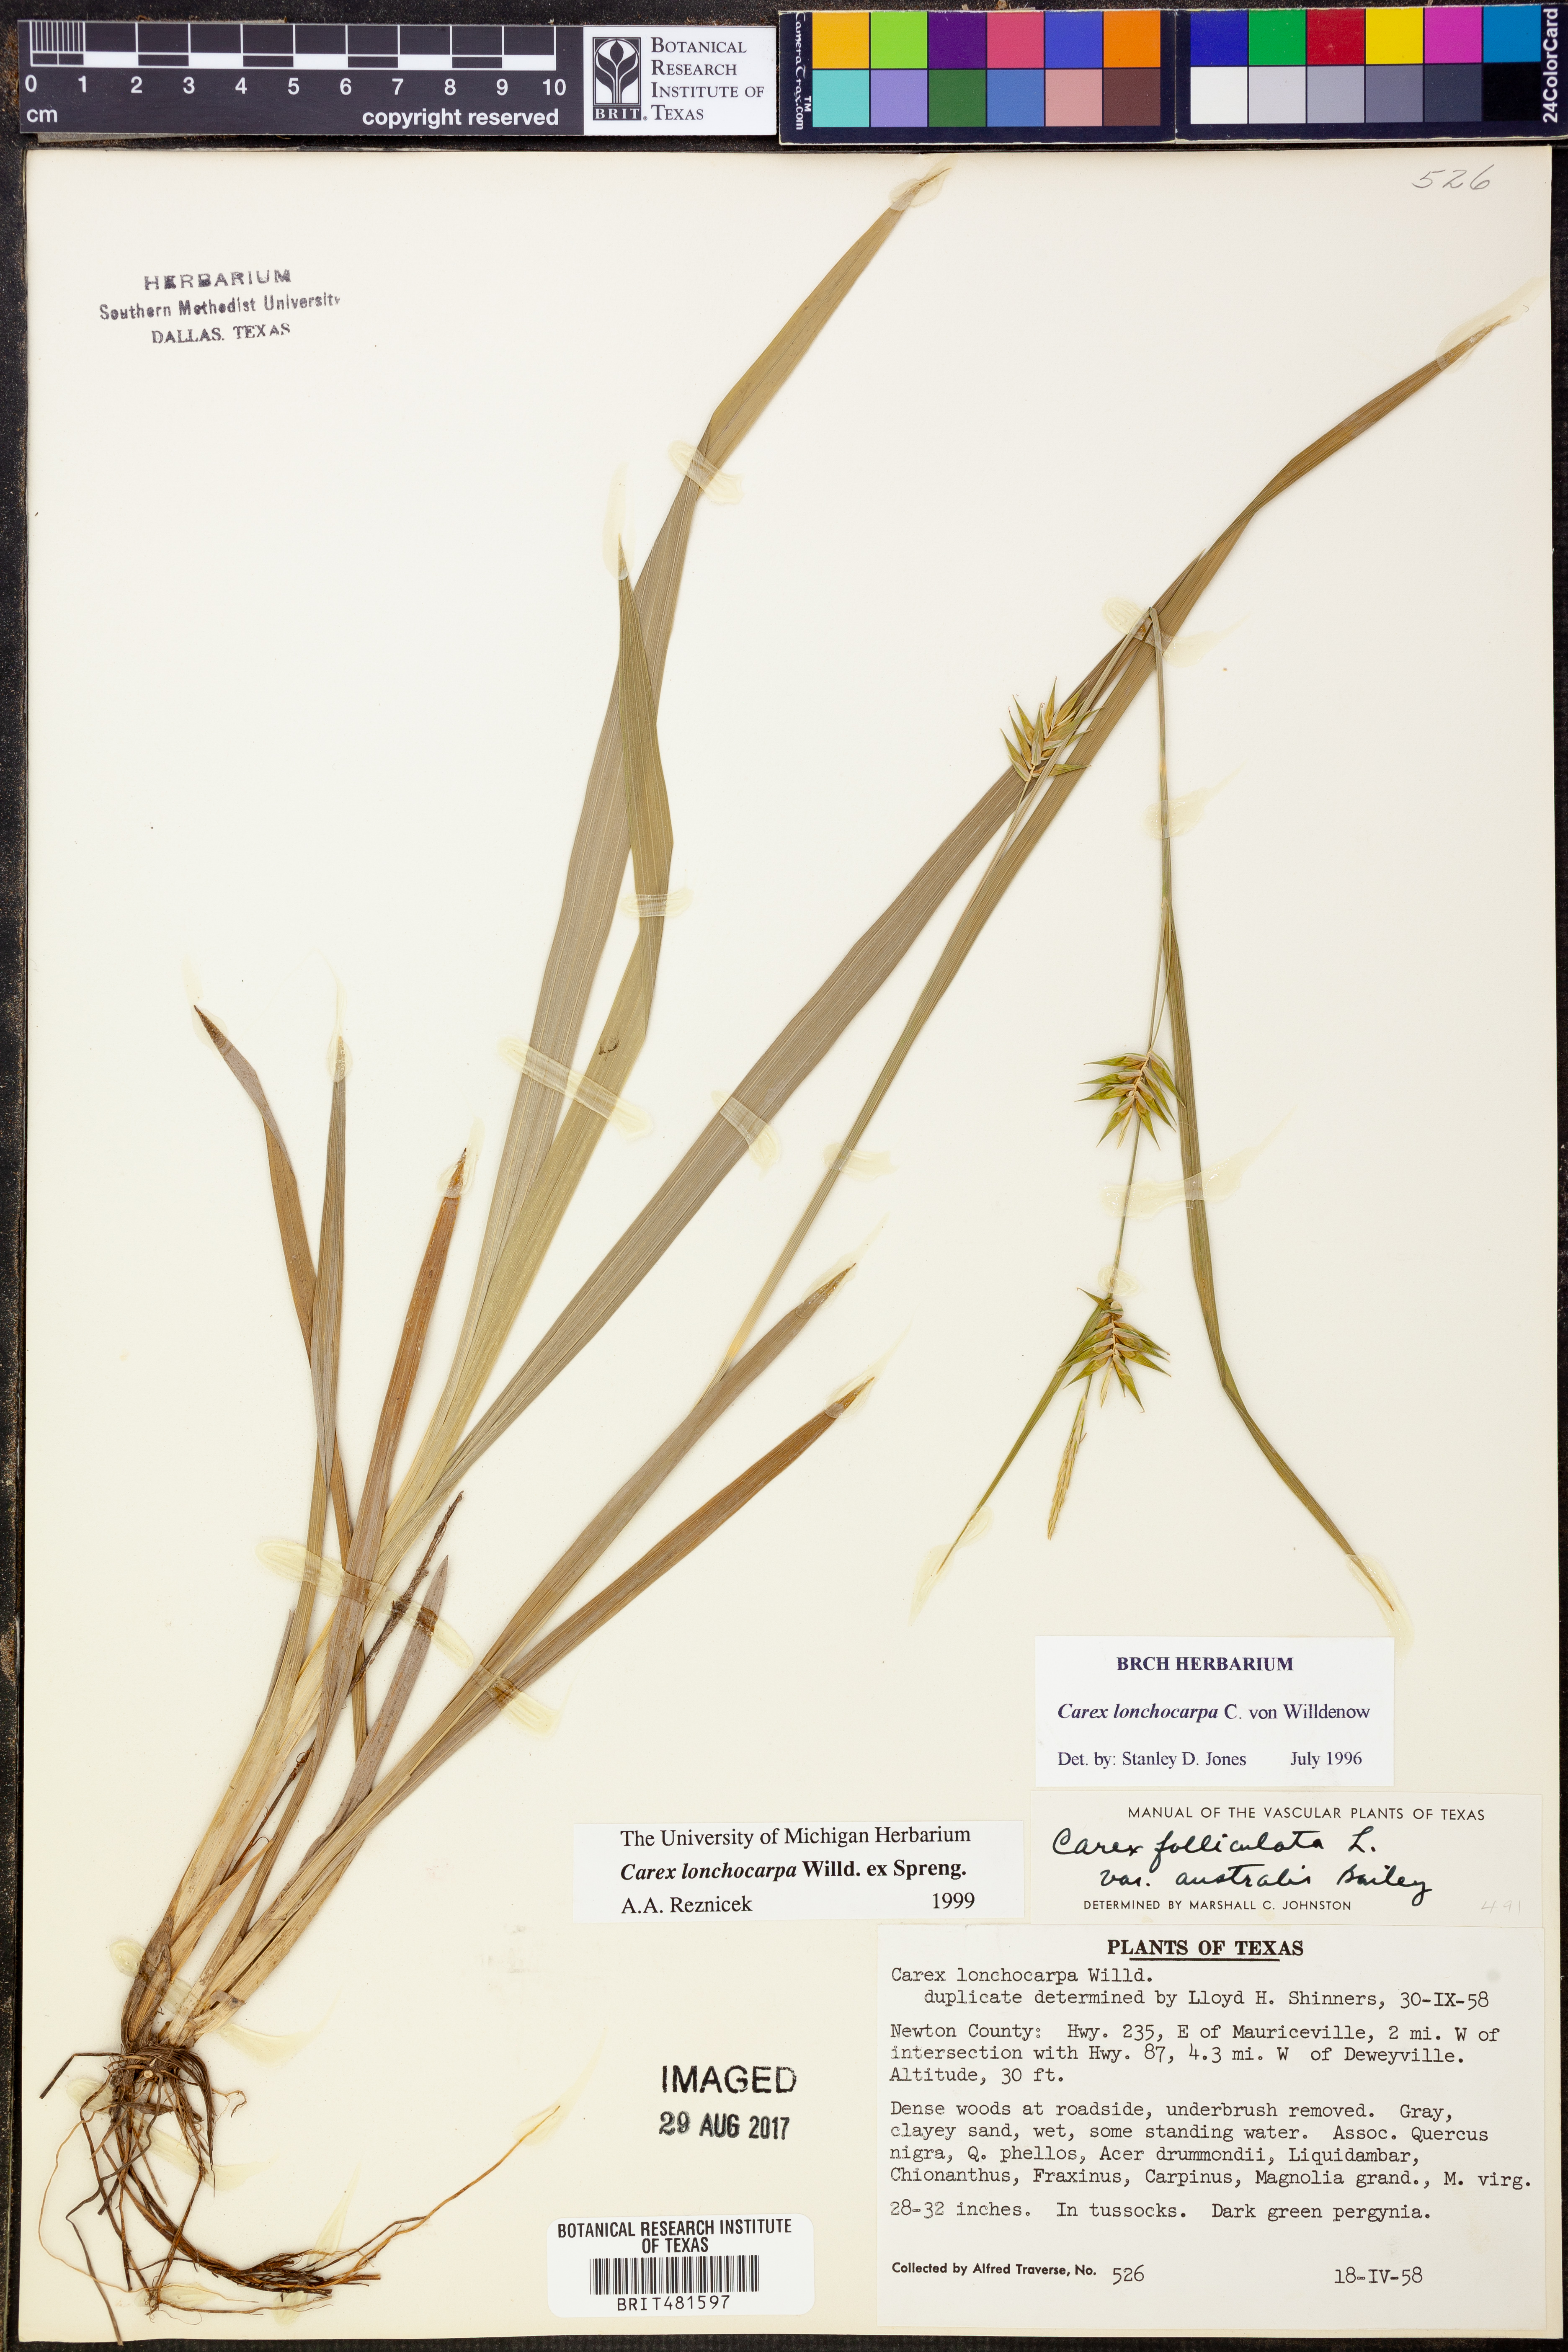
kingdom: Plantae
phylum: Tracheophyta
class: Liliopsida
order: Poales
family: Cyperaceae
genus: Carex
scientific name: Carex lonchocarpa
